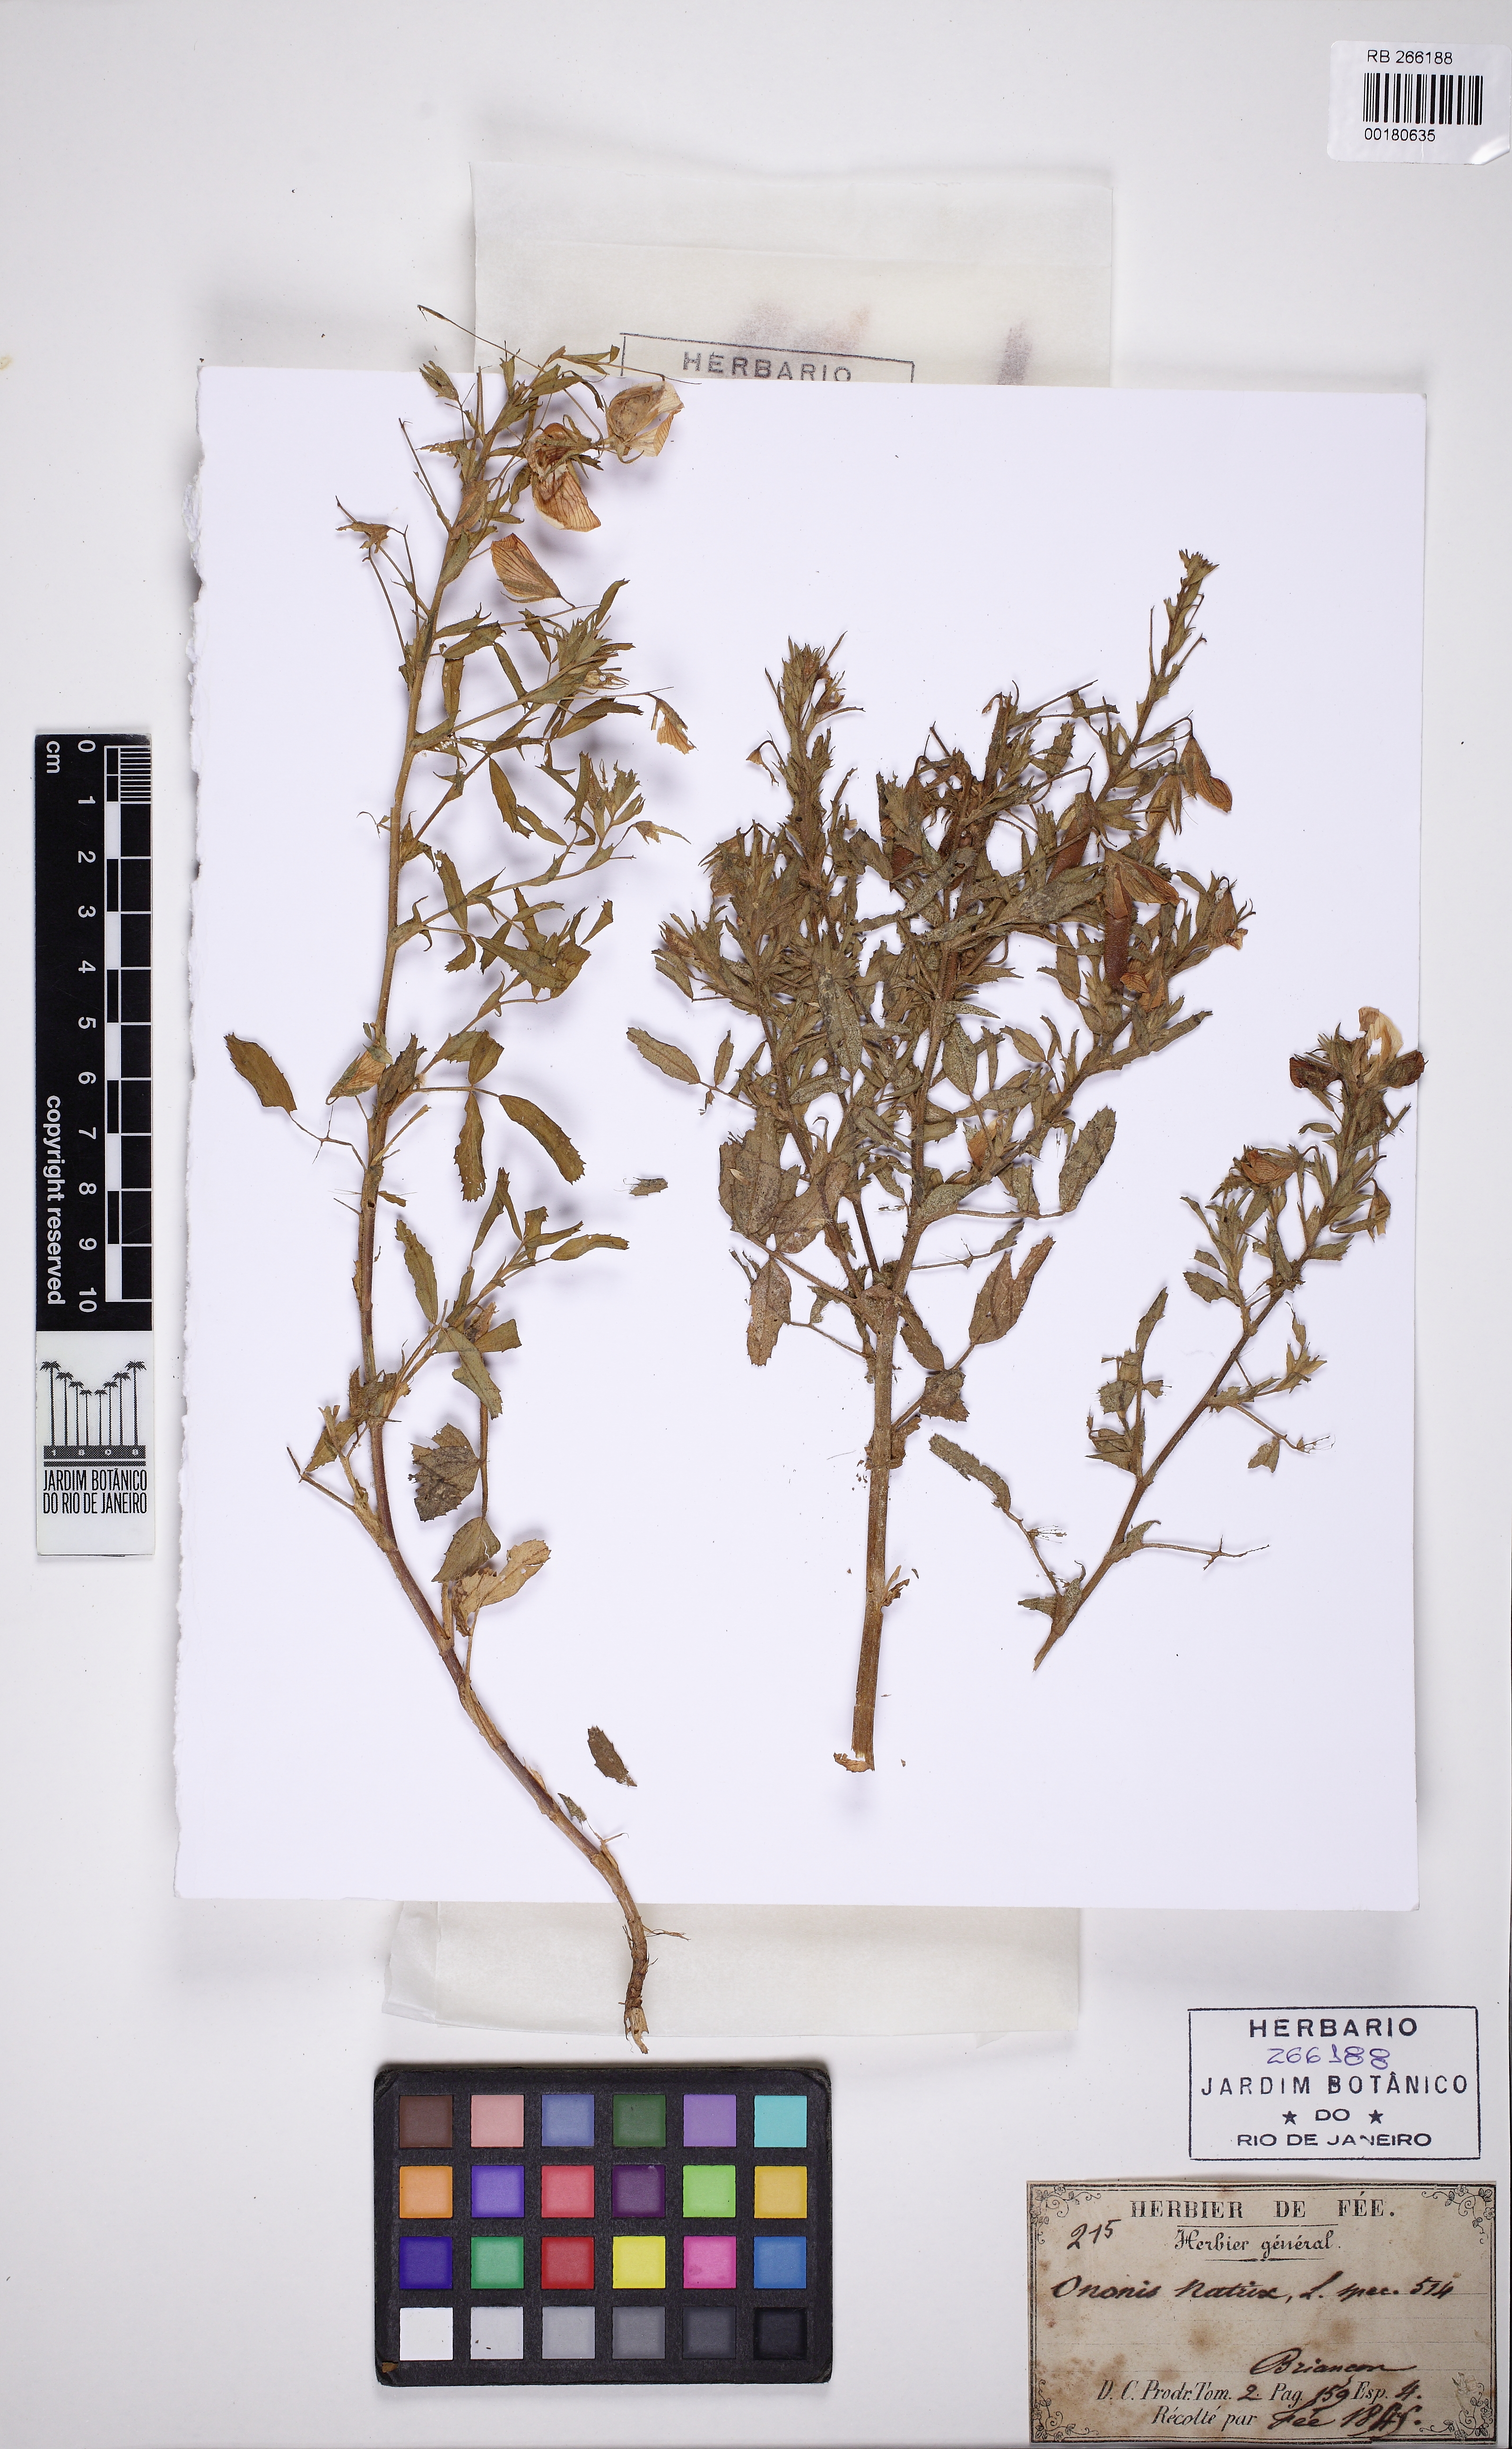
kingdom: Plantae
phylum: Tracheophyta
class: Magnoliopsida
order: Fabales
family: Fabaceae
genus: Ononis
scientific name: Ononis natrix
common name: Yellow restharrow
